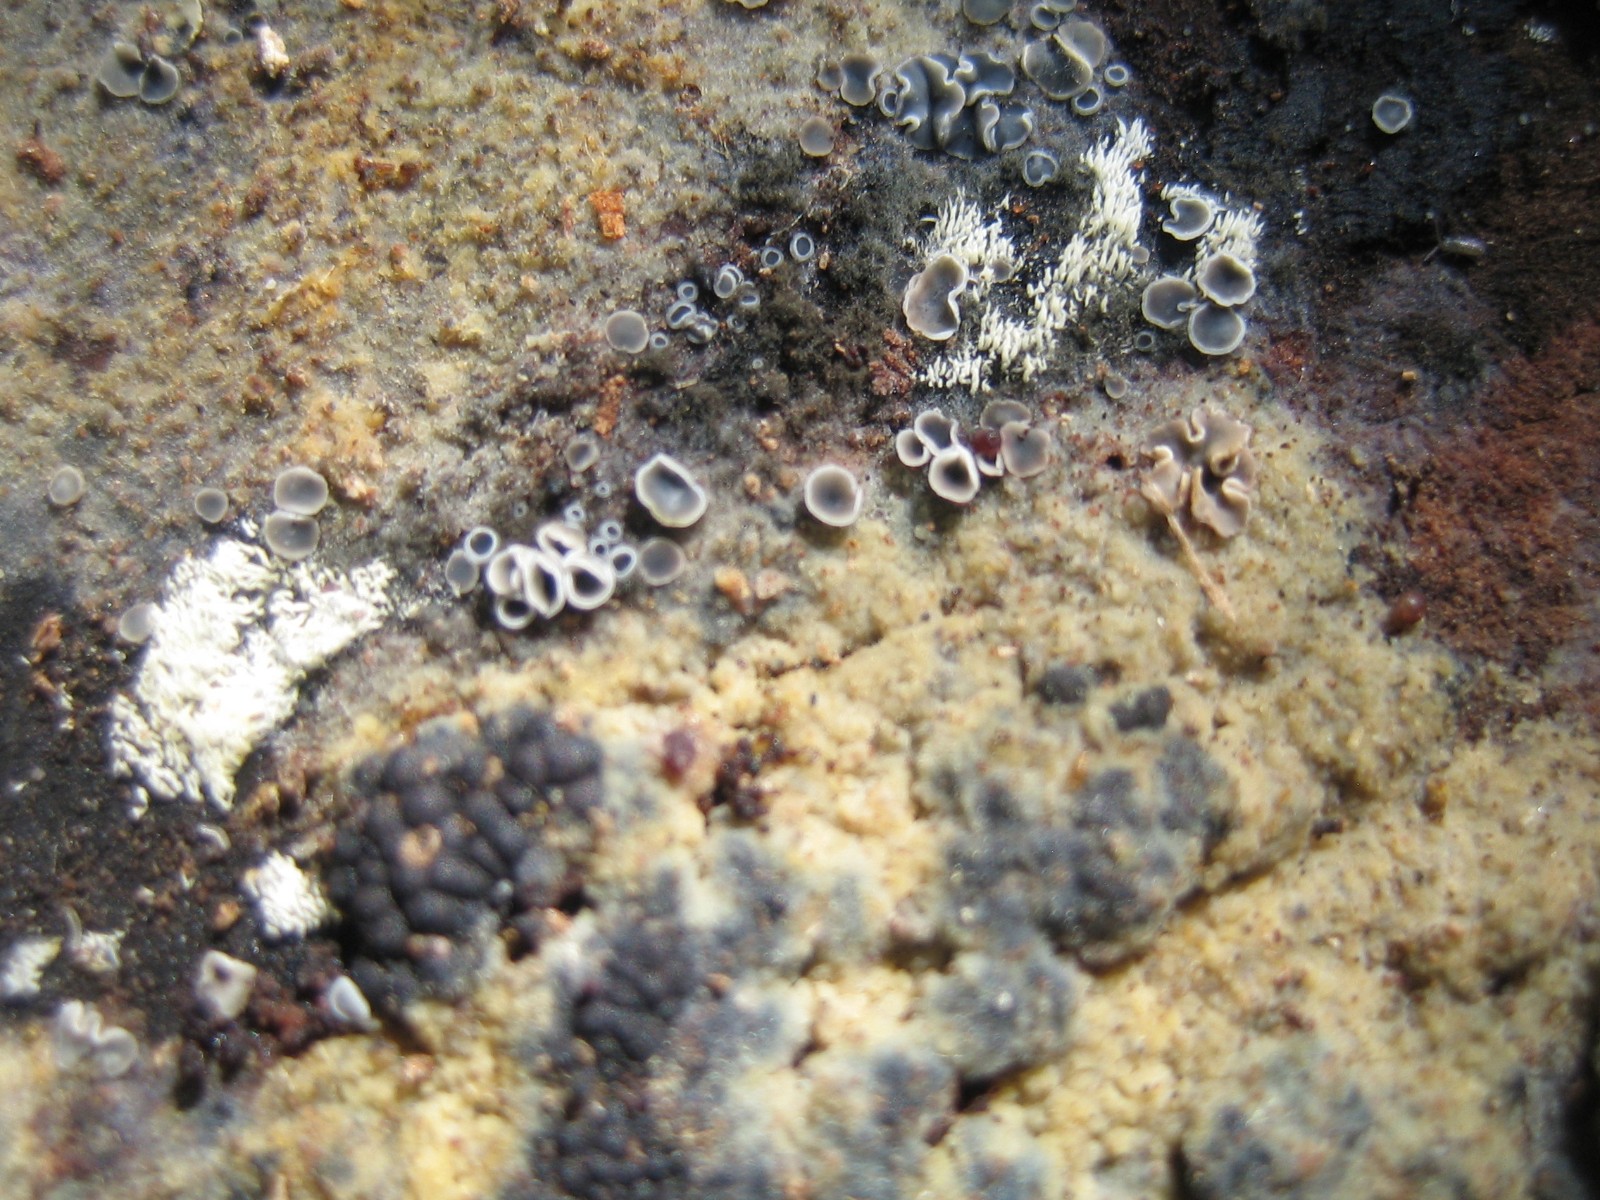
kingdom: Fungi
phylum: Ascomycota
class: Leotiomycetes
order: Helotiales
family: Mollisiaceae
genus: Mollisia
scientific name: Mollisia cinerea
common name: almindelig gråskive
